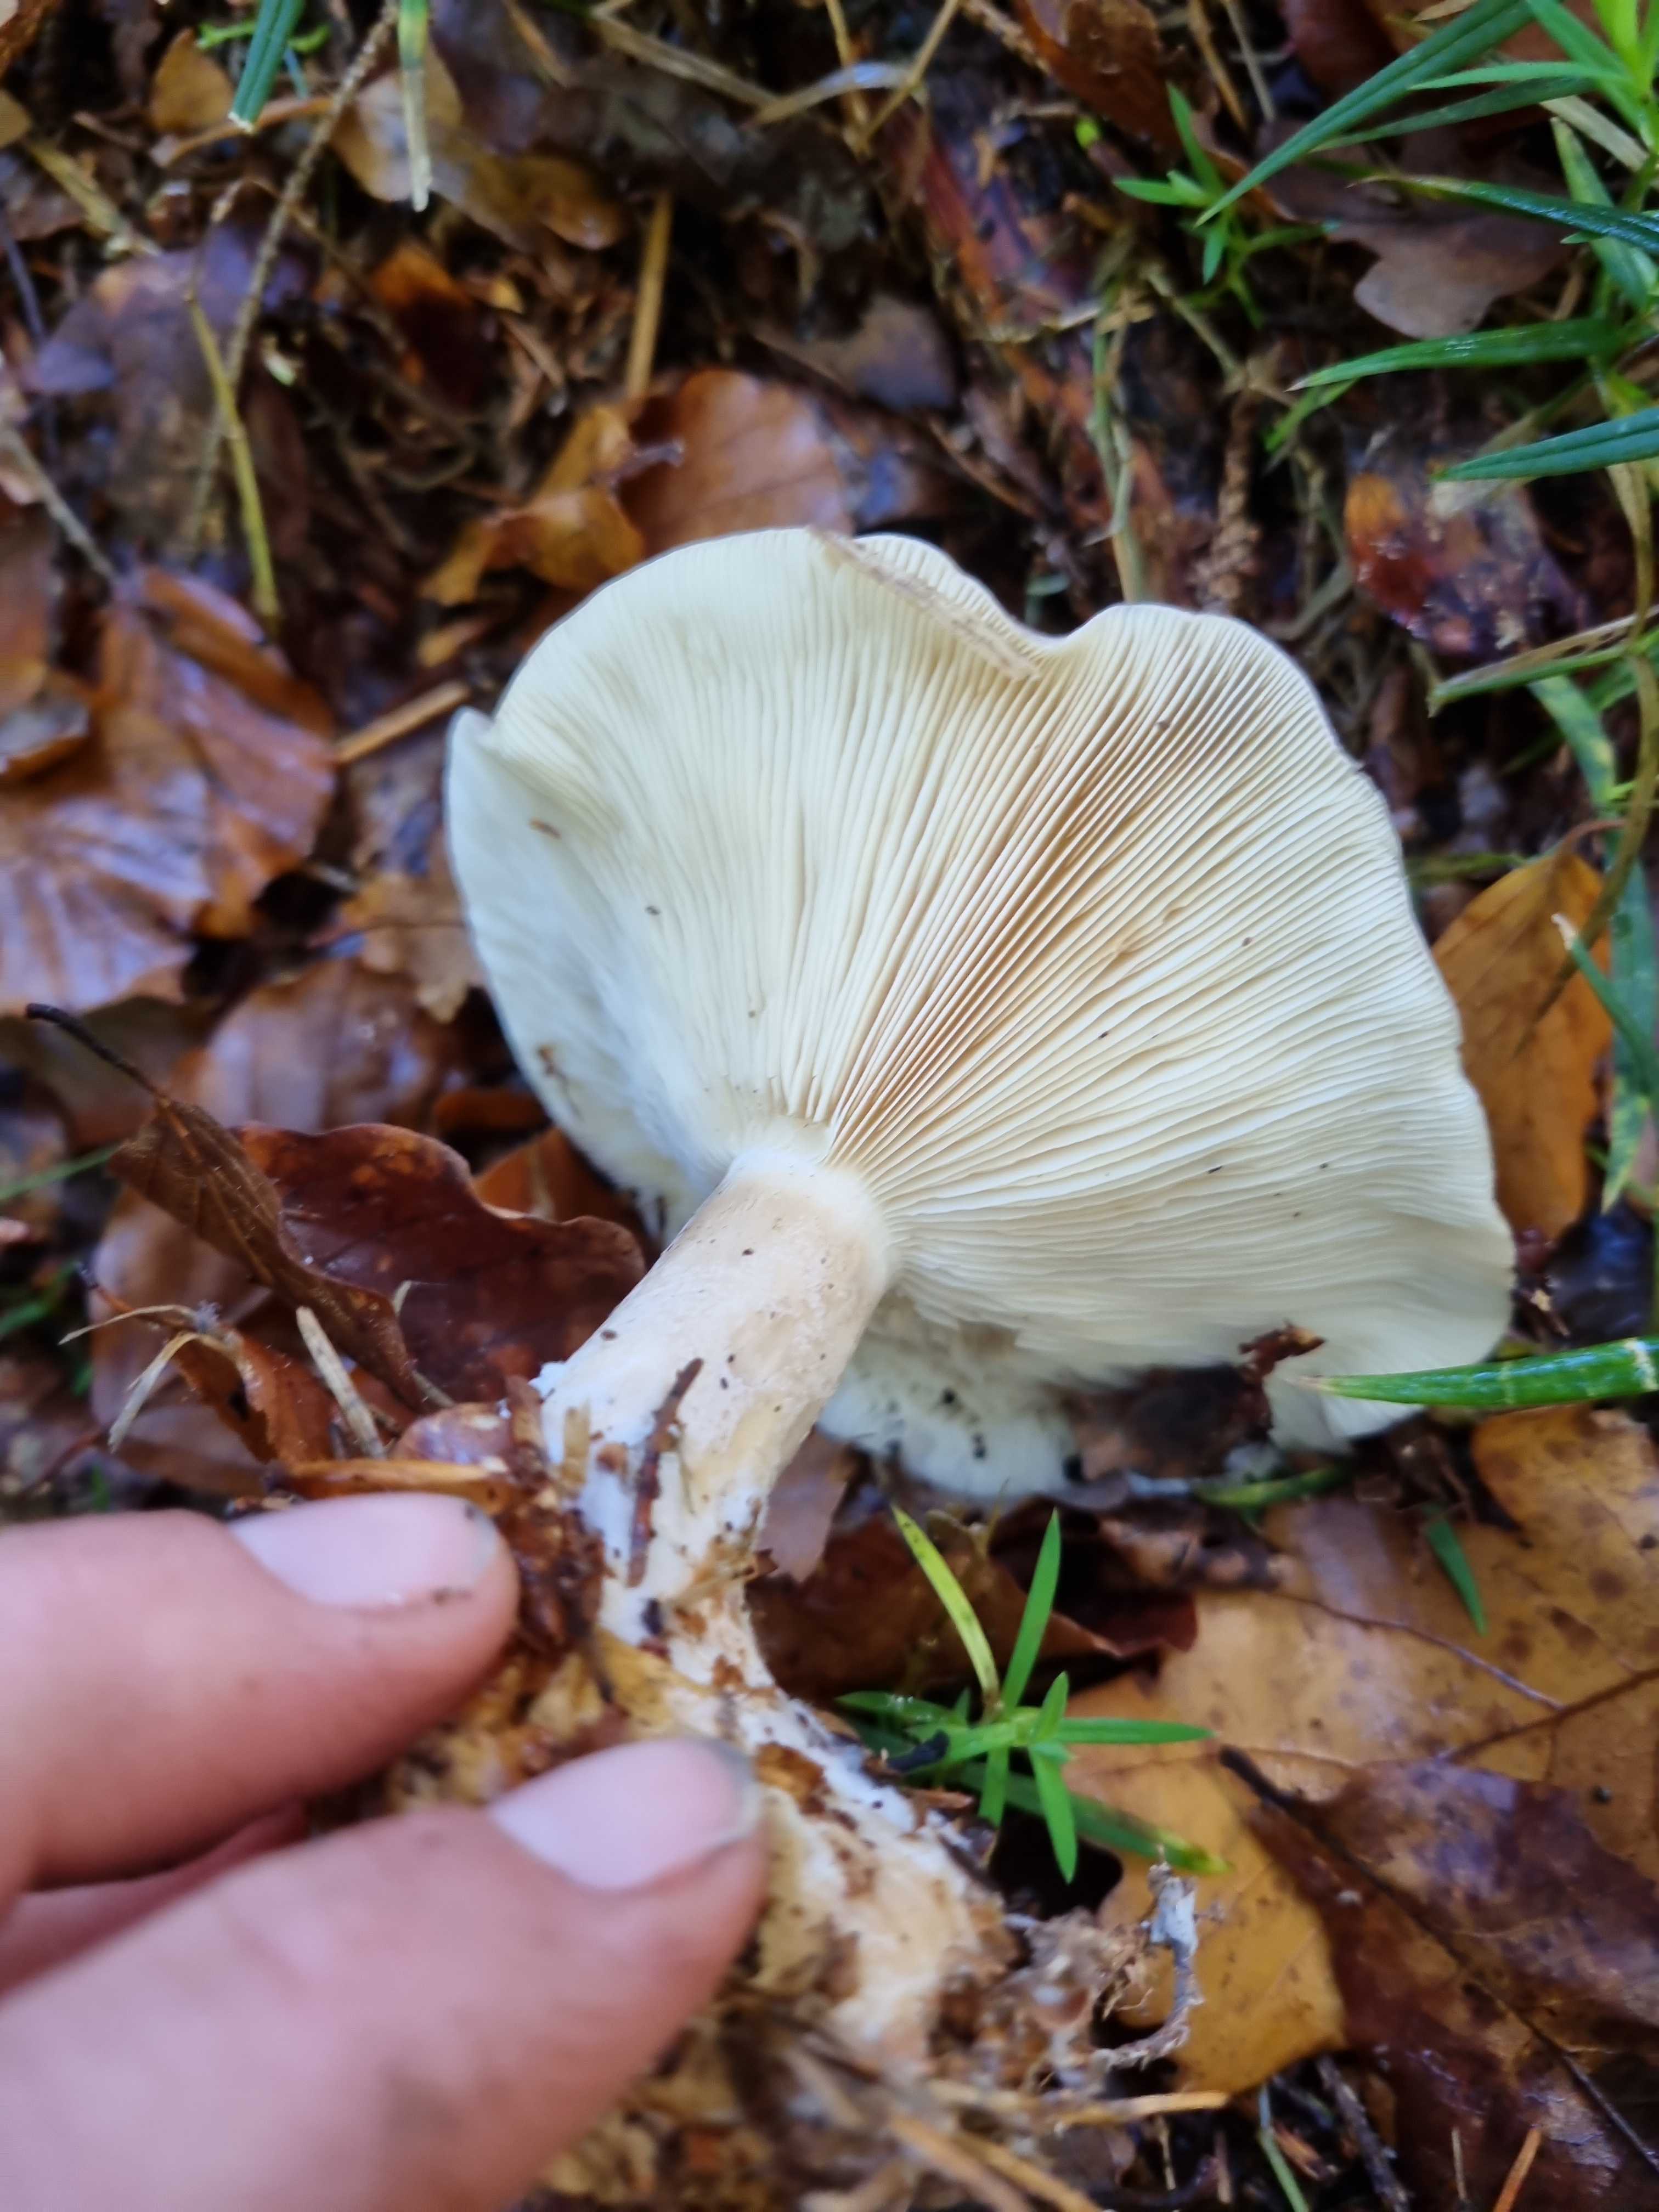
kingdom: Fungi
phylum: Basidiomycota
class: Agaricomycetes
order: Agaricales
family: Tricholomataceae
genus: Clitocybe
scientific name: Clitocybe nebularis
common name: tåge-tragthat
